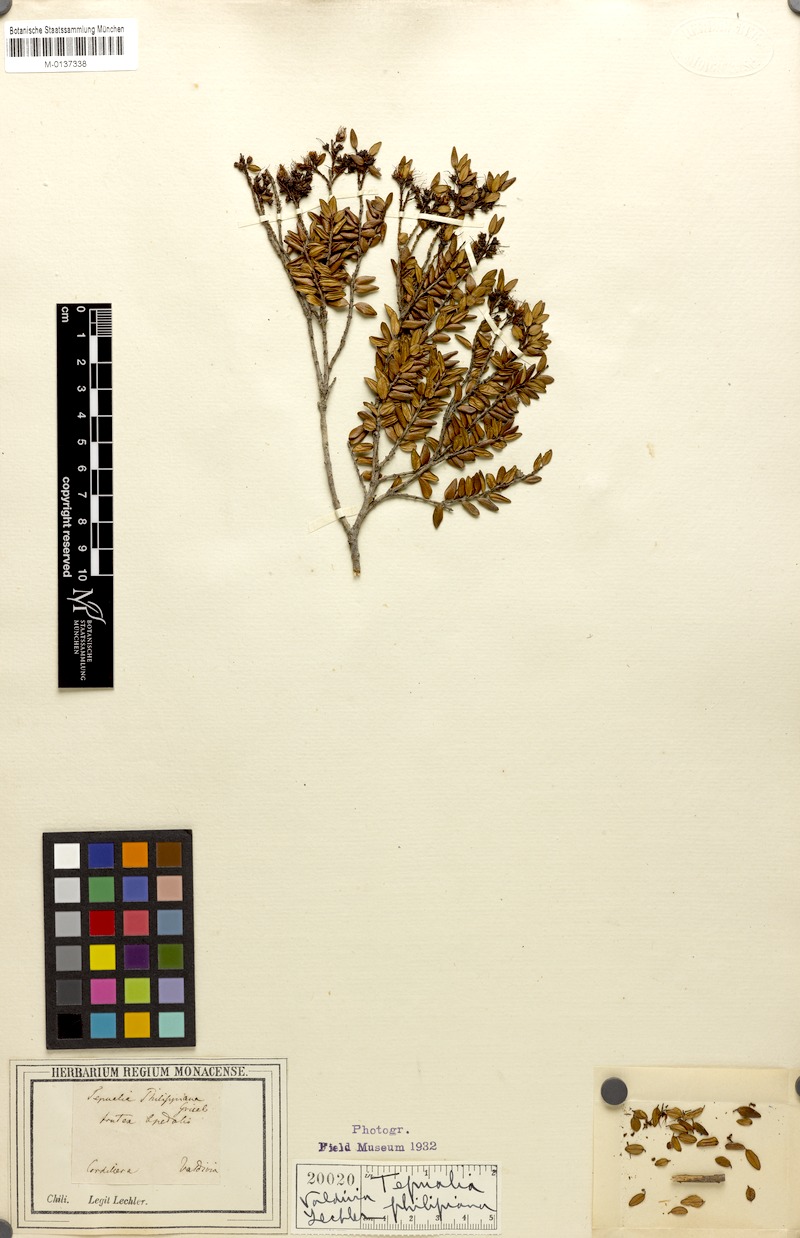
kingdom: Plantae
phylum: Tracheophyta
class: Magnoliopsida
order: Myrtales
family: Myrtaceae
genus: Tepualia
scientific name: Tepualia stipularis
